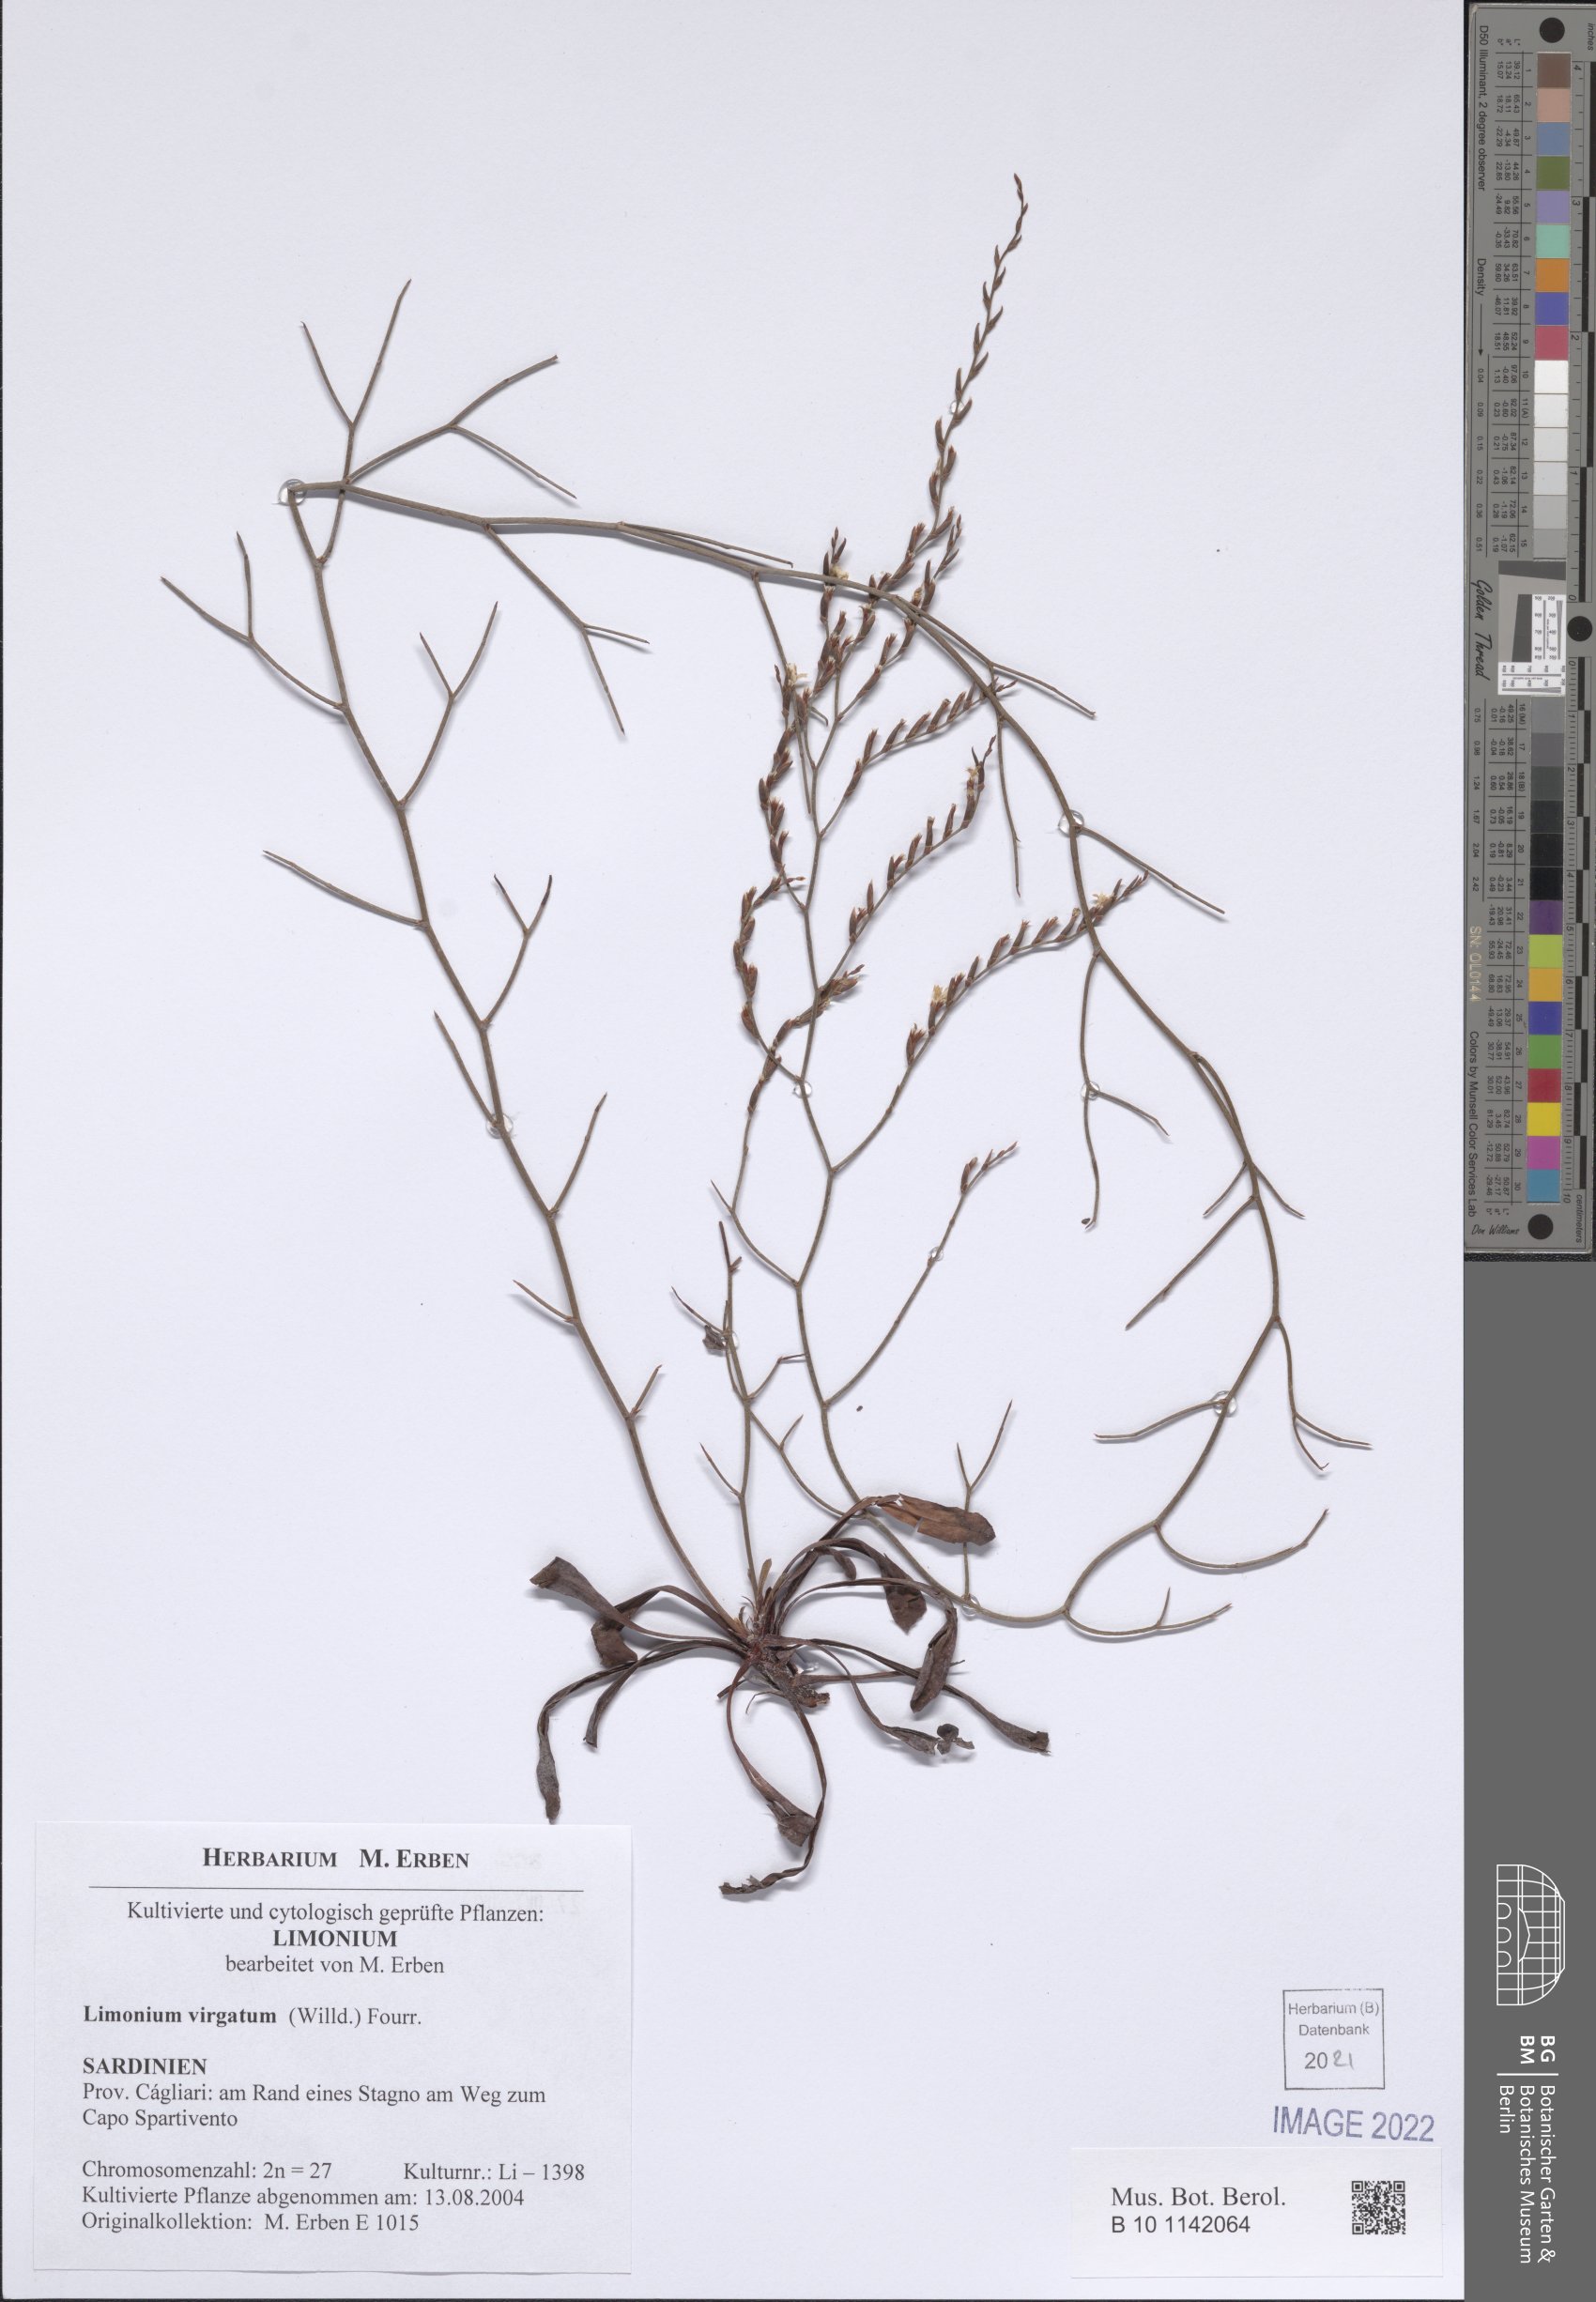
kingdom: Plantae
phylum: Tracheophyta
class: Magnoliopsida
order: Caryophyllales
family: Plumbaginaceae
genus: Limonium
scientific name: Limonium virgatum
